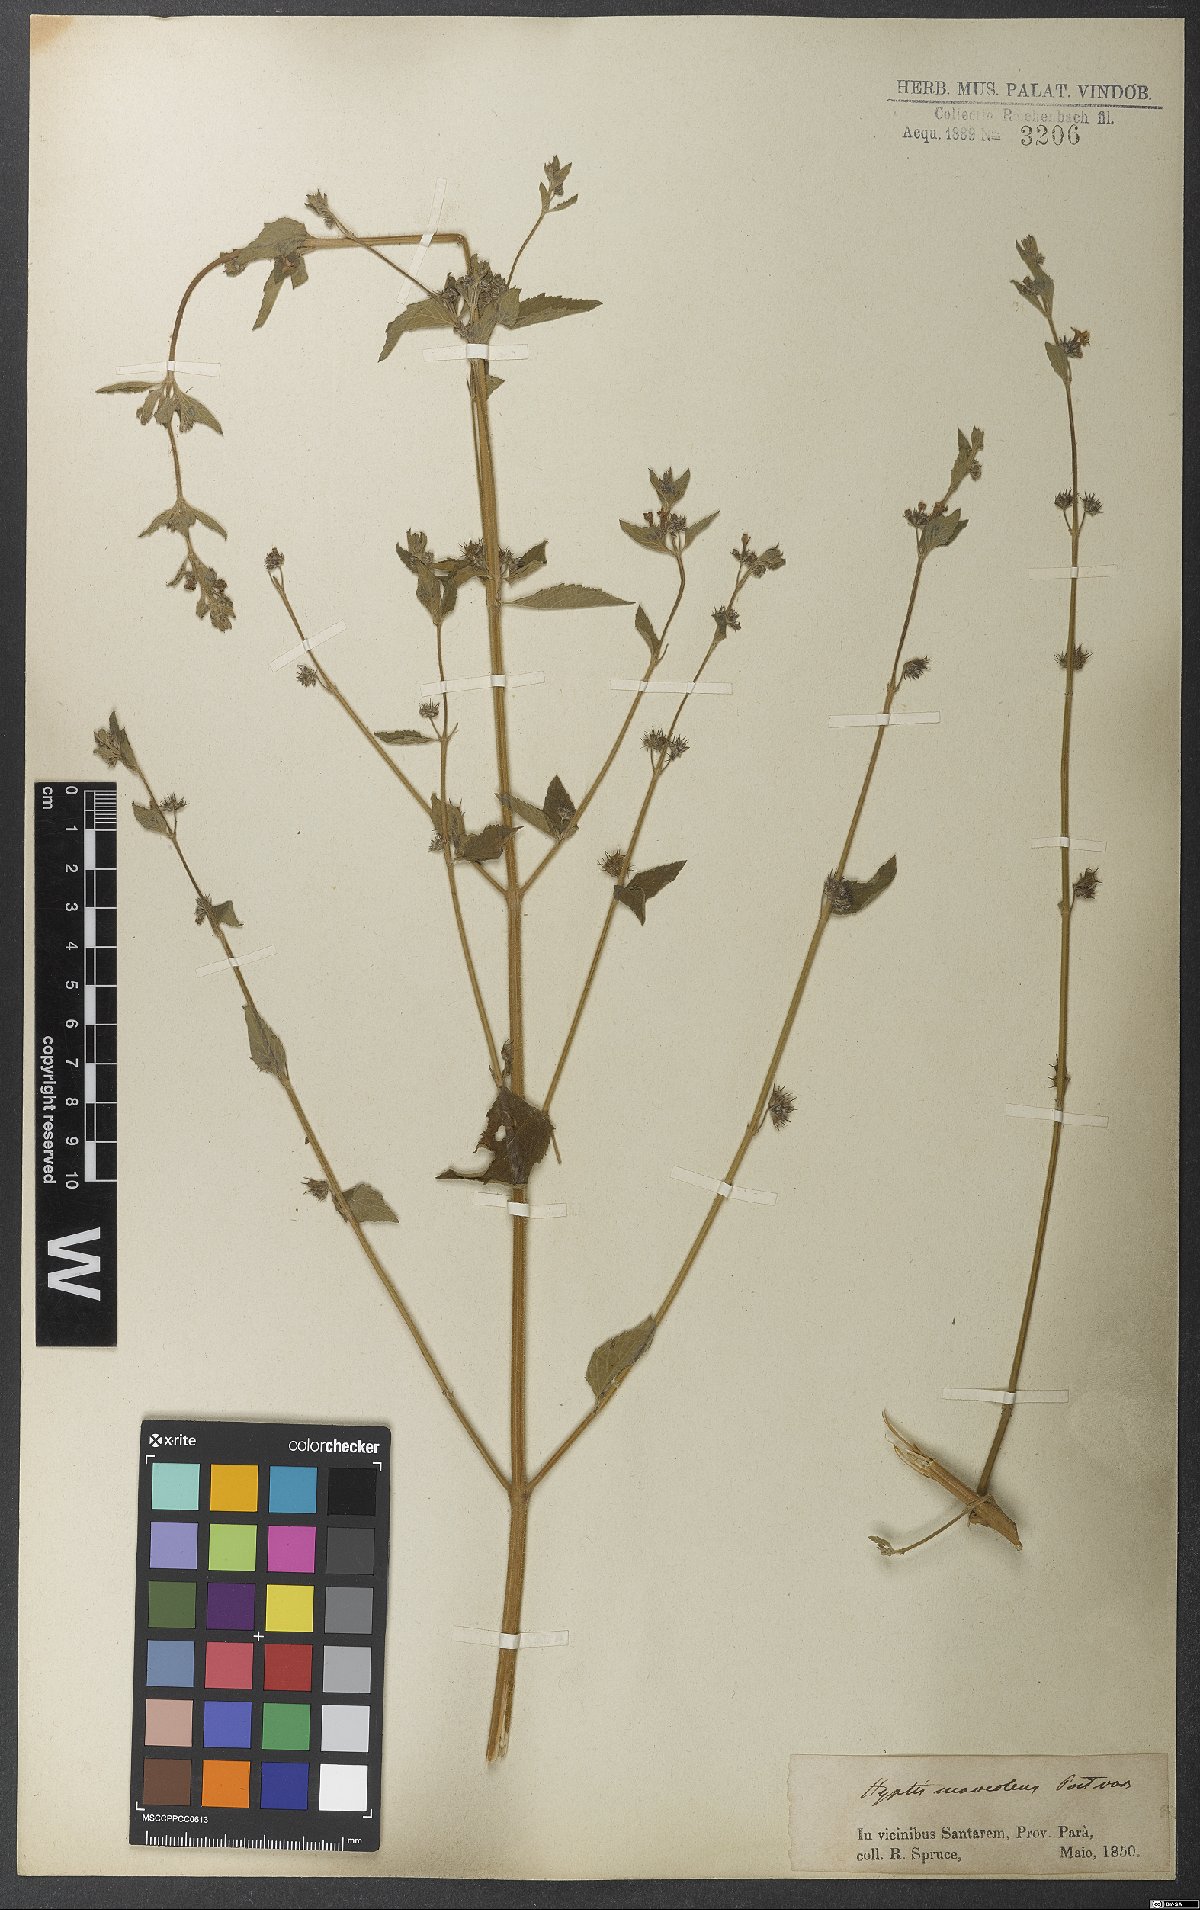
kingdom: Plantae
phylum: Tracheophyta
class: Magnoliopsida
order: Lamiales
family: Lamiaceae
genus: Mesosphaerum
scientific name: Mesosphaerum suaveolens
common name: Pignut
